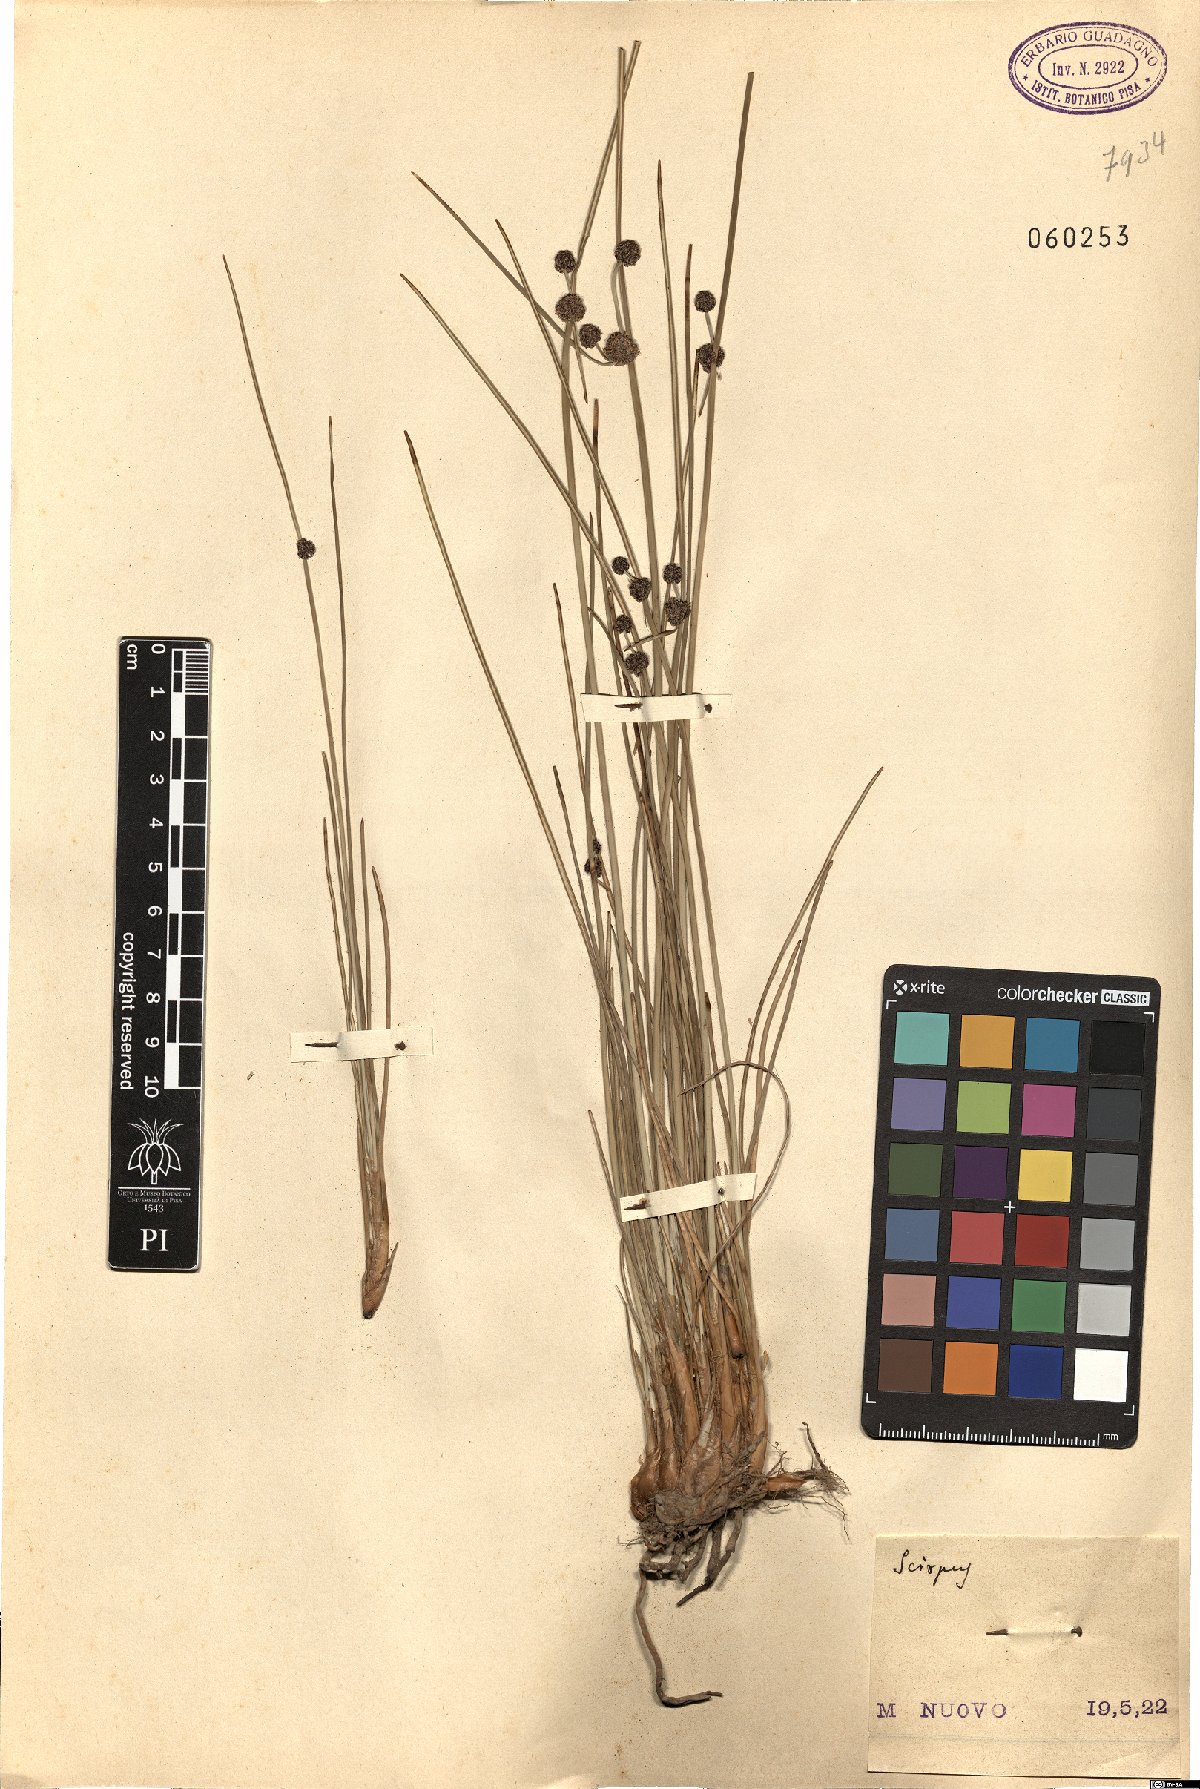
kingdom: Plantae
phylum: Tracheophyta
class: Liliopsida
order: Poales
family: Cyperaceae
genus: Scirpus
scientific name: Scirpus
